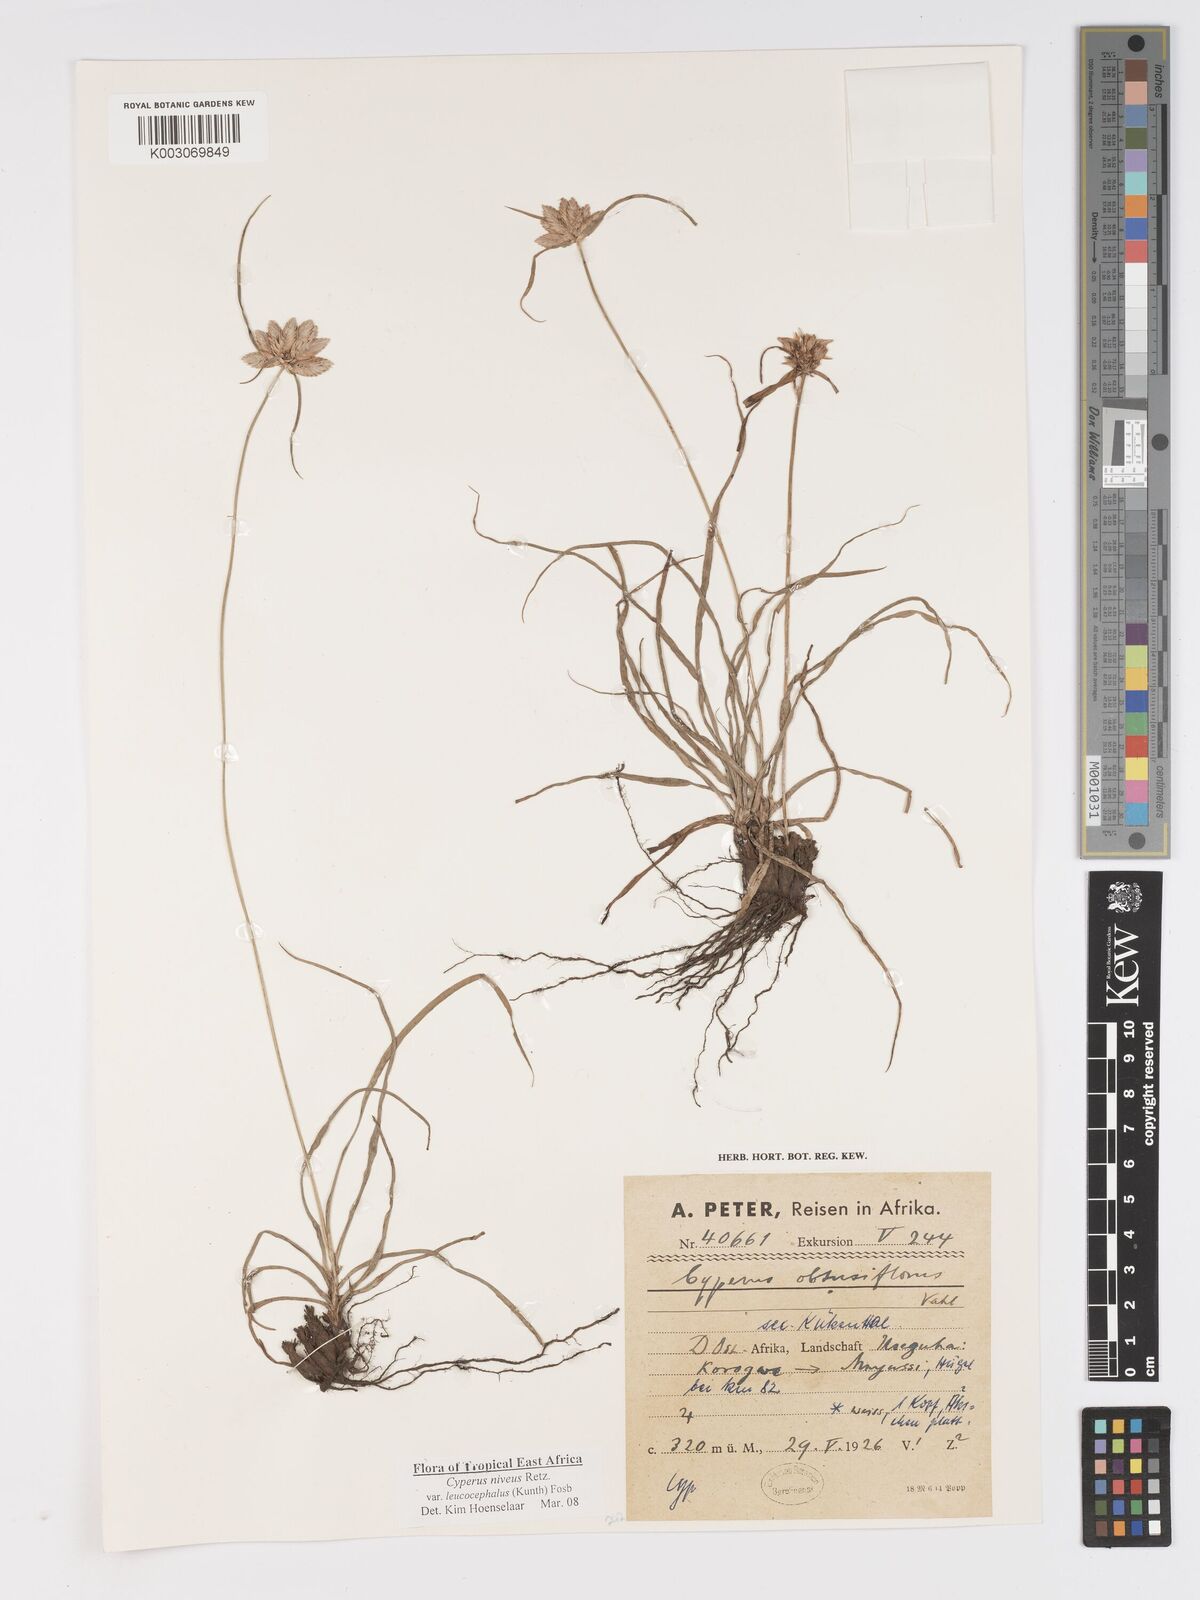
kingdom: Plantae
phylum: Tracheophyta
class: Liliopsida
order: Poales
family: Cyperaceae
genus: Cyperus
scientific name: Cyperus niveus
